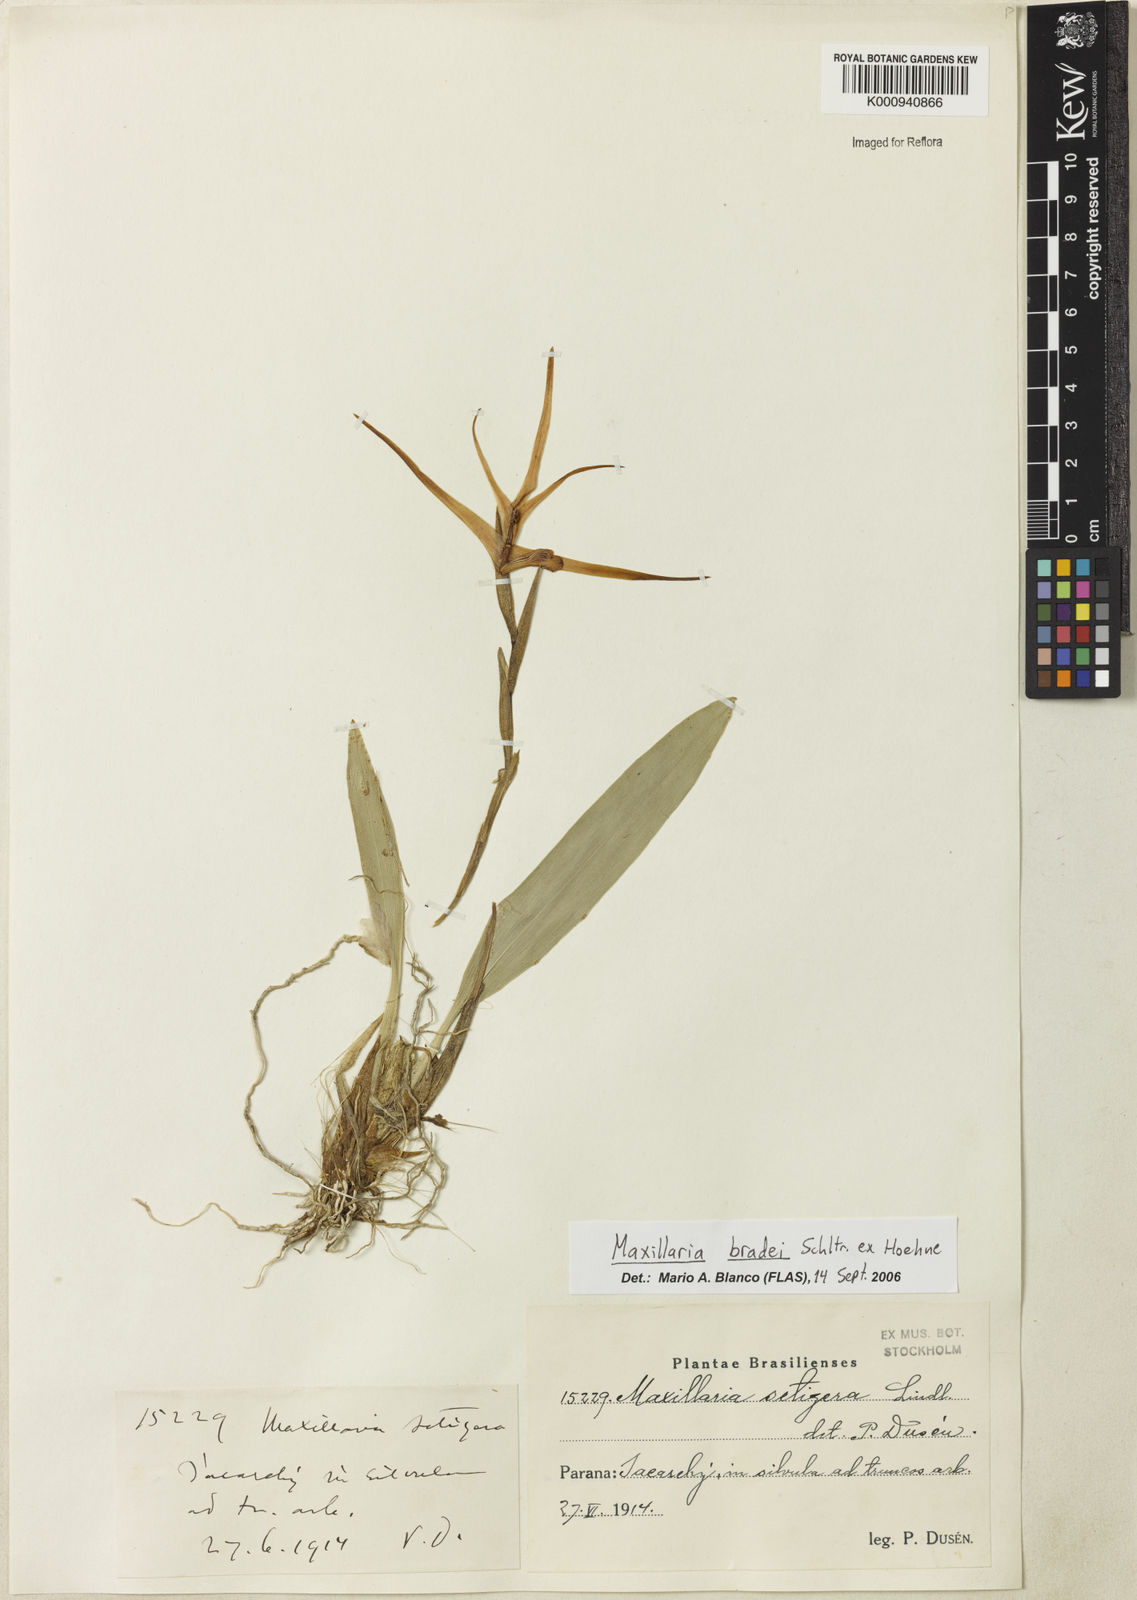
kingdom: Plantae
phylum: Tracheophyta
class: Liliopsida
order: Asparagales
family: Orchidaceae
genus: Maxillaria
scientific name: Maxillaria
